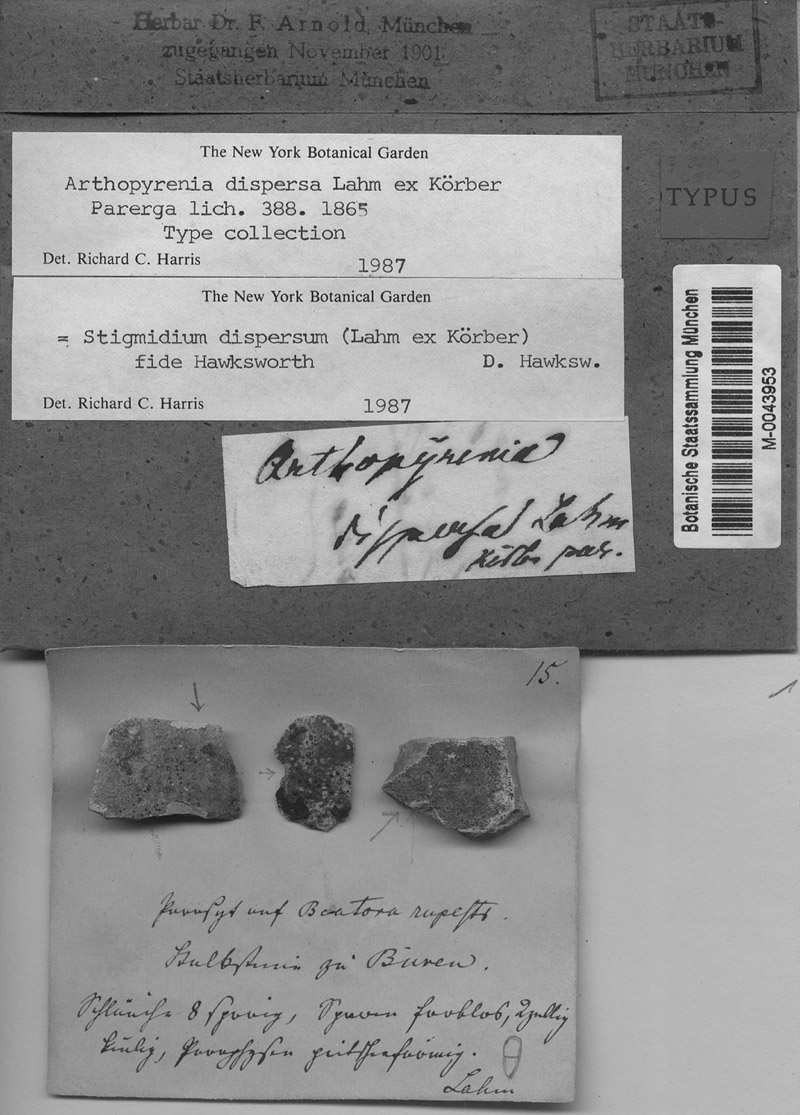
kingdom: Fungi
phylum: Ascomycota
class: Lecanoromycetes
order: Lecanorales
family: Psoraceae
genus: Protoblastenia
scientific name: Protoblastenia rupestris
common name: Chewing gum lichen
